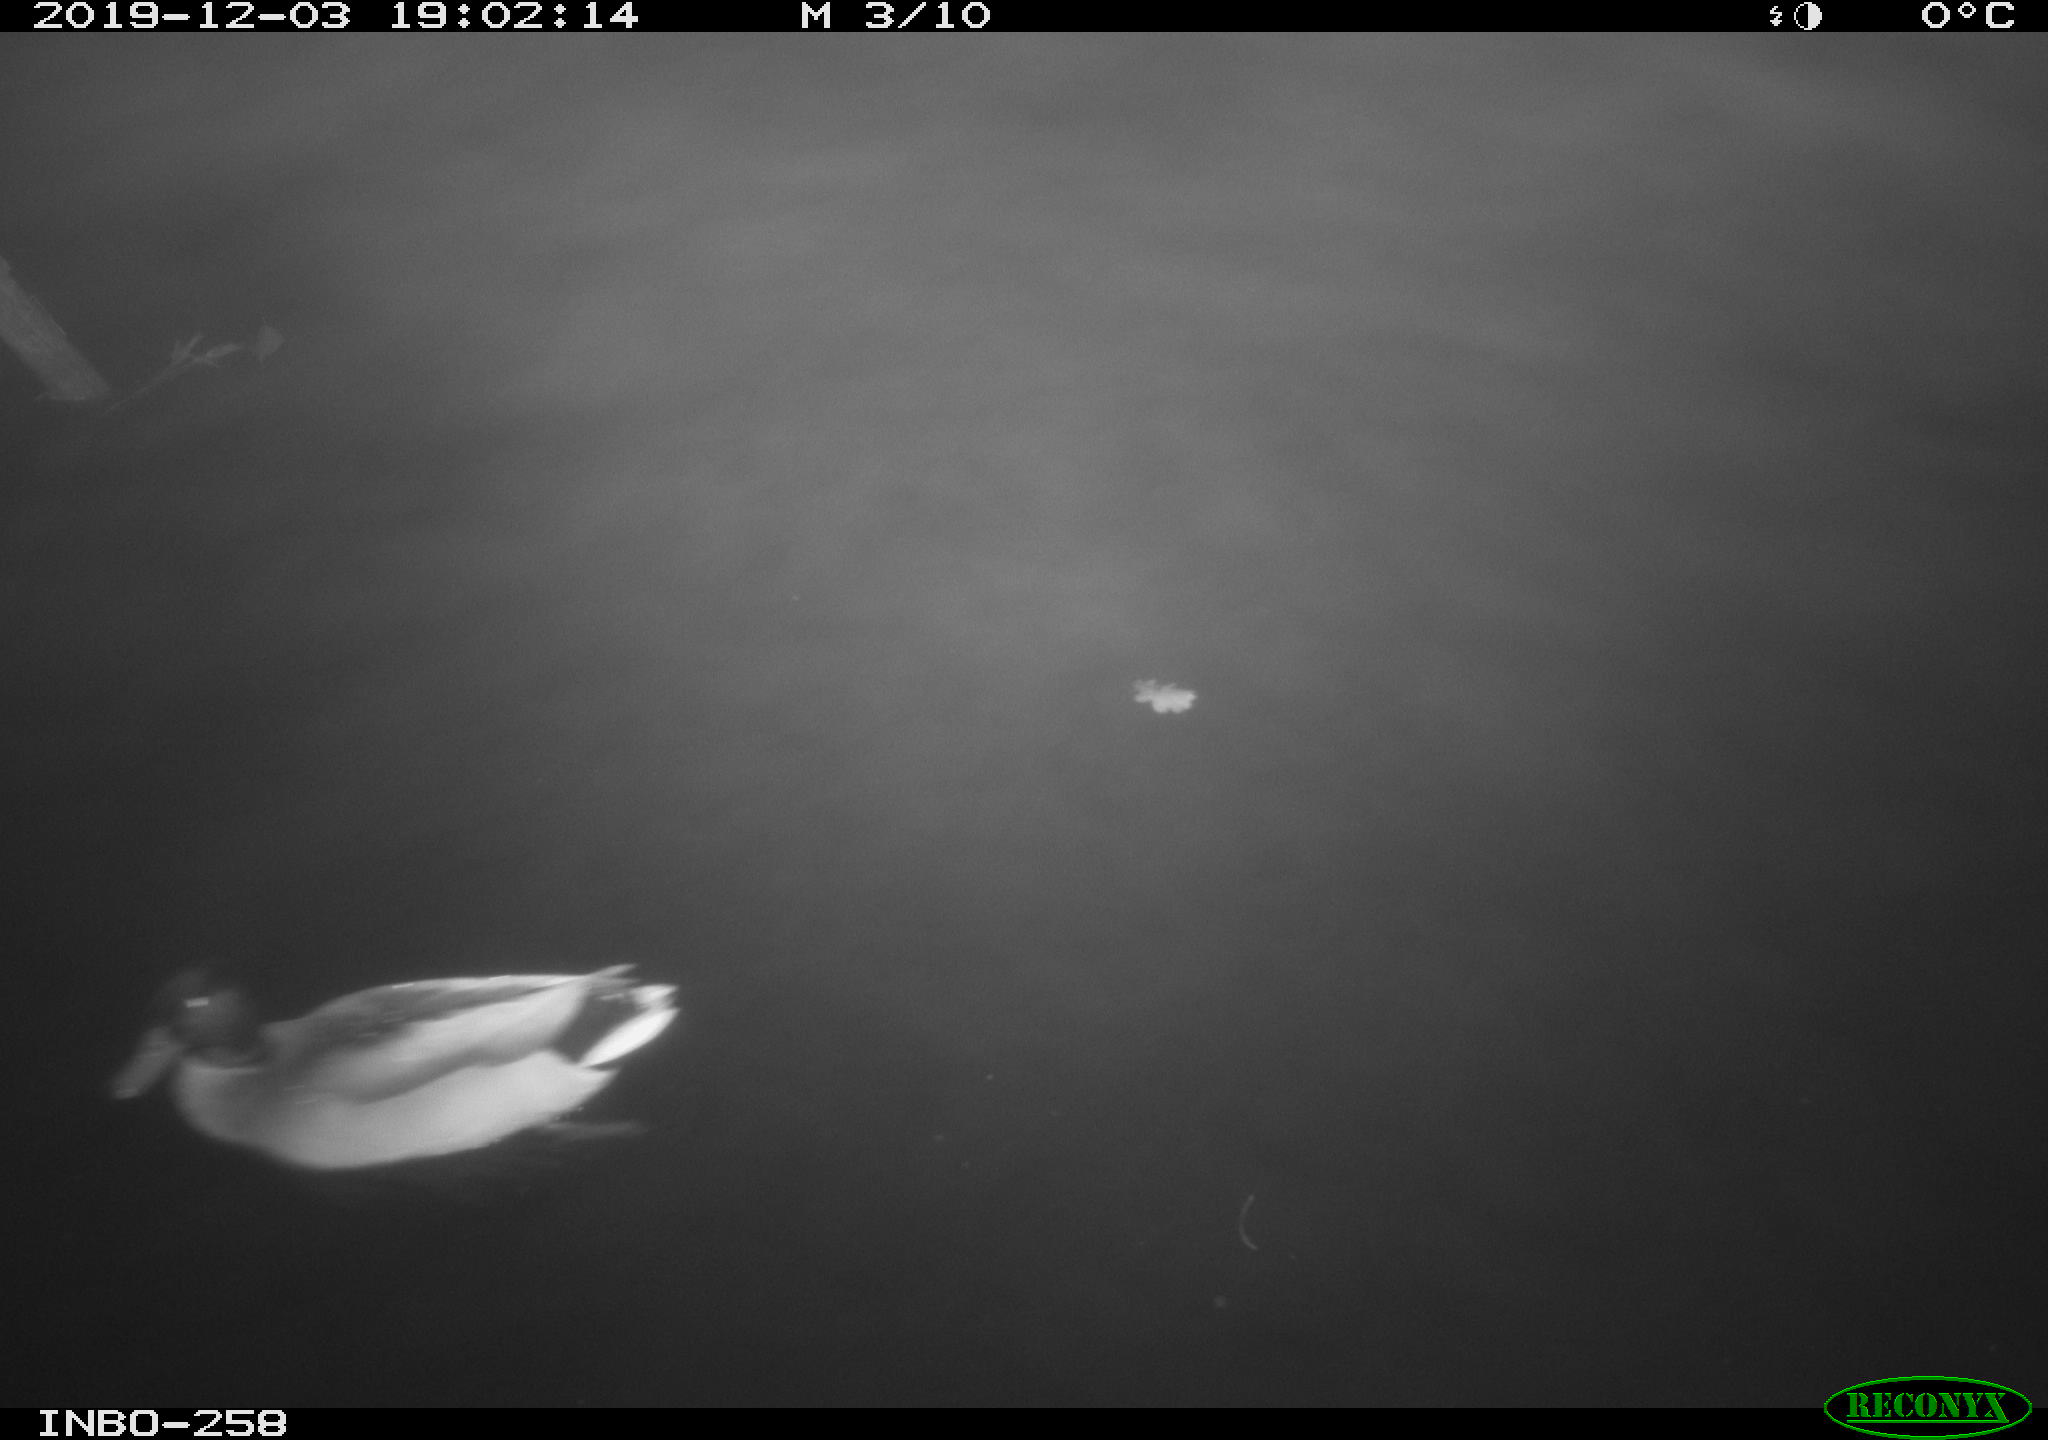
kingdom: Animalia
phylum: Chordata
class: Aves
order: Anseriformes
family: Anatidae
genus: Anas
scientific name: Anas platyrhynchos
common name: Mallard
